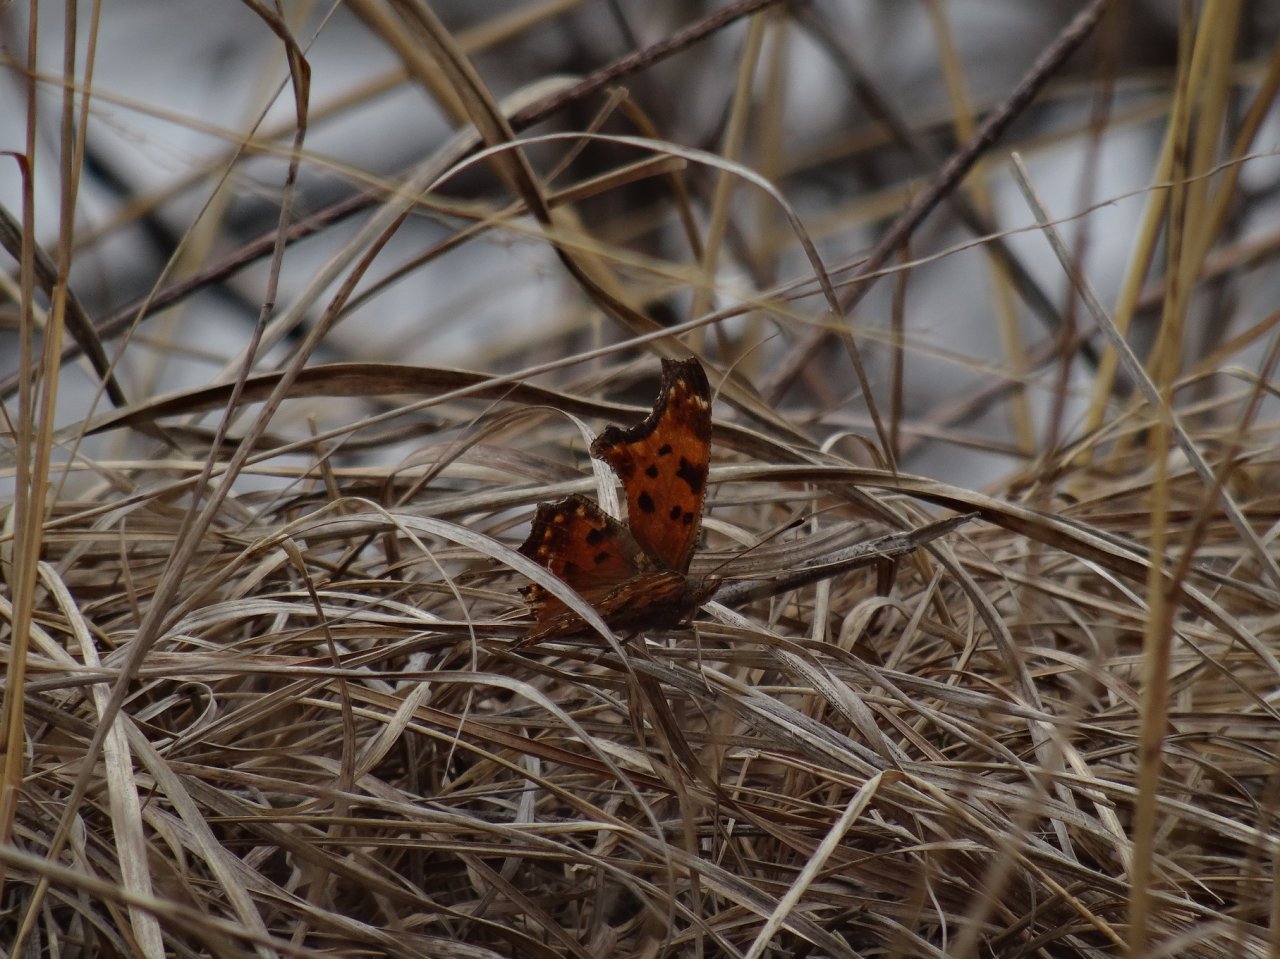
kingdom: Animalia
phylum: Arthropoda
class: Insecta
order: Lepidoptera
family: Nymphalidae
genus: Polygonia
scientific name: Polygonia comma
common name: Eastern Comma
